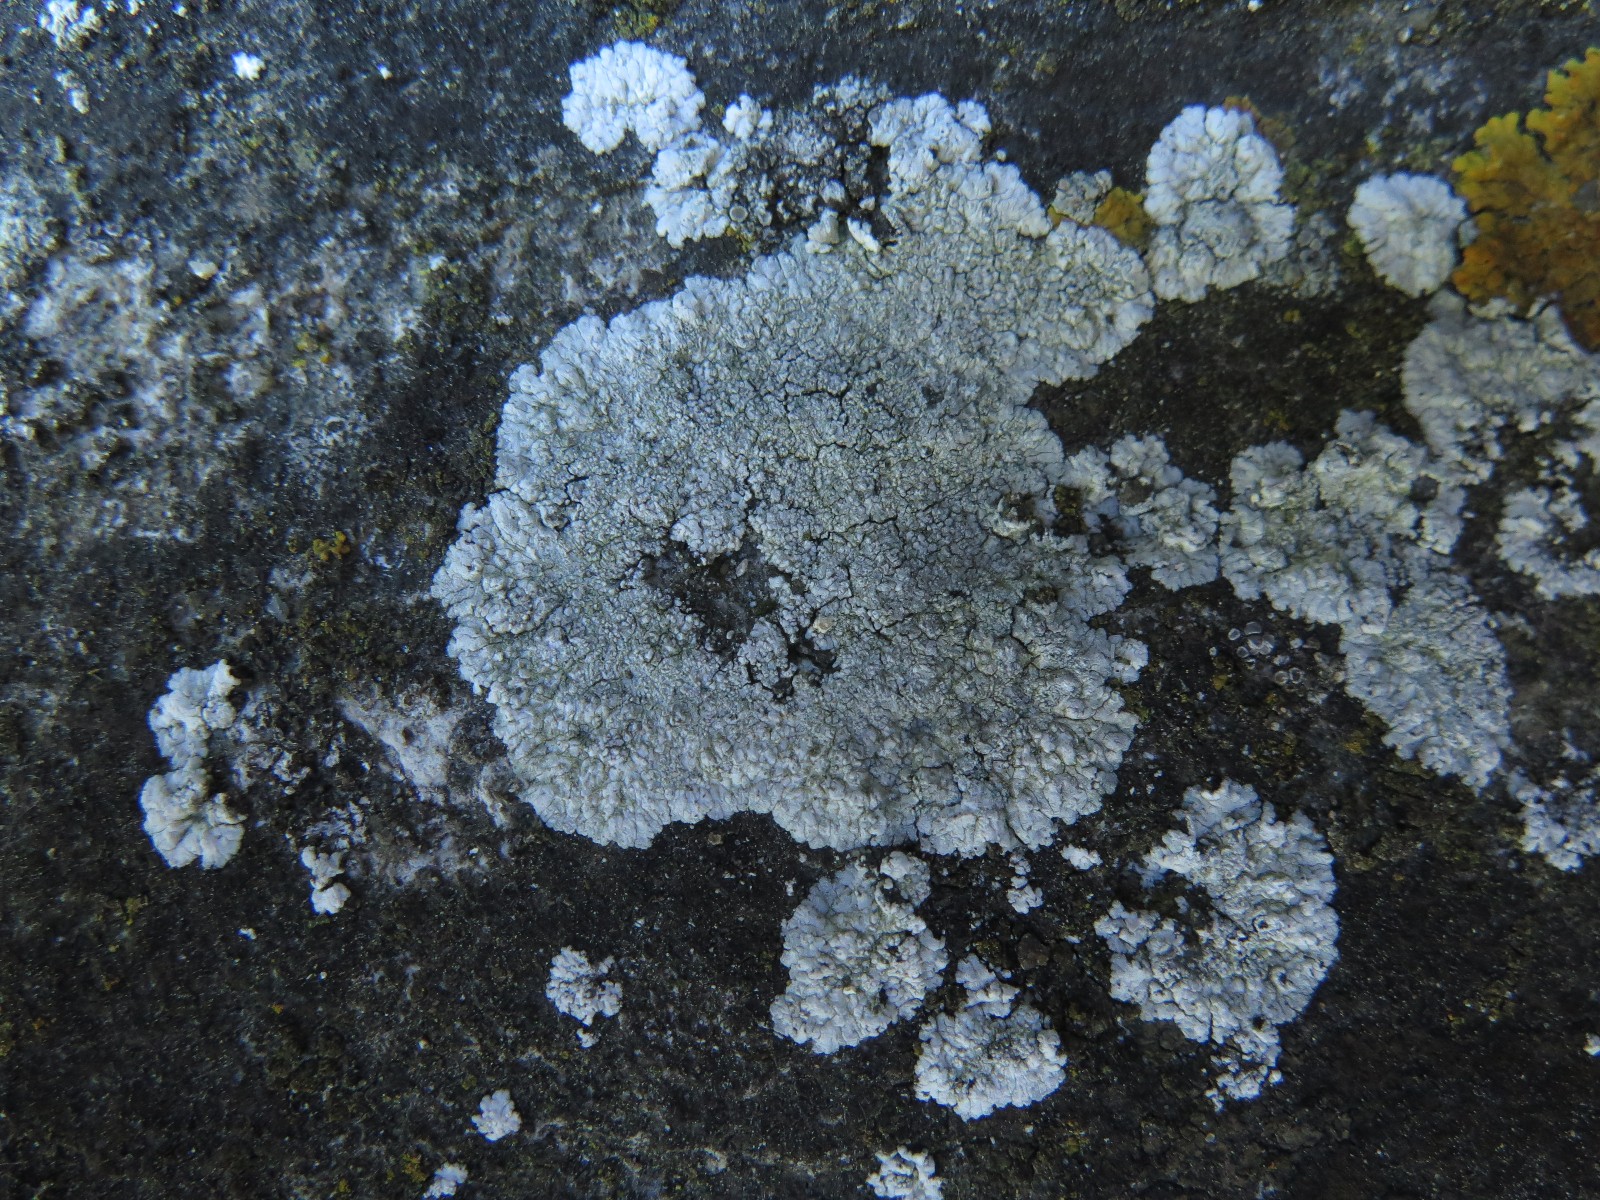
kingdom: Fungi
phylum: Ascomycota
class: Lecanoromycetes
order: Caliciales
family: Caliciaceae
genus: Diploicia
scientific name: Diploicia canescens
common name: grå støvrosetlav
